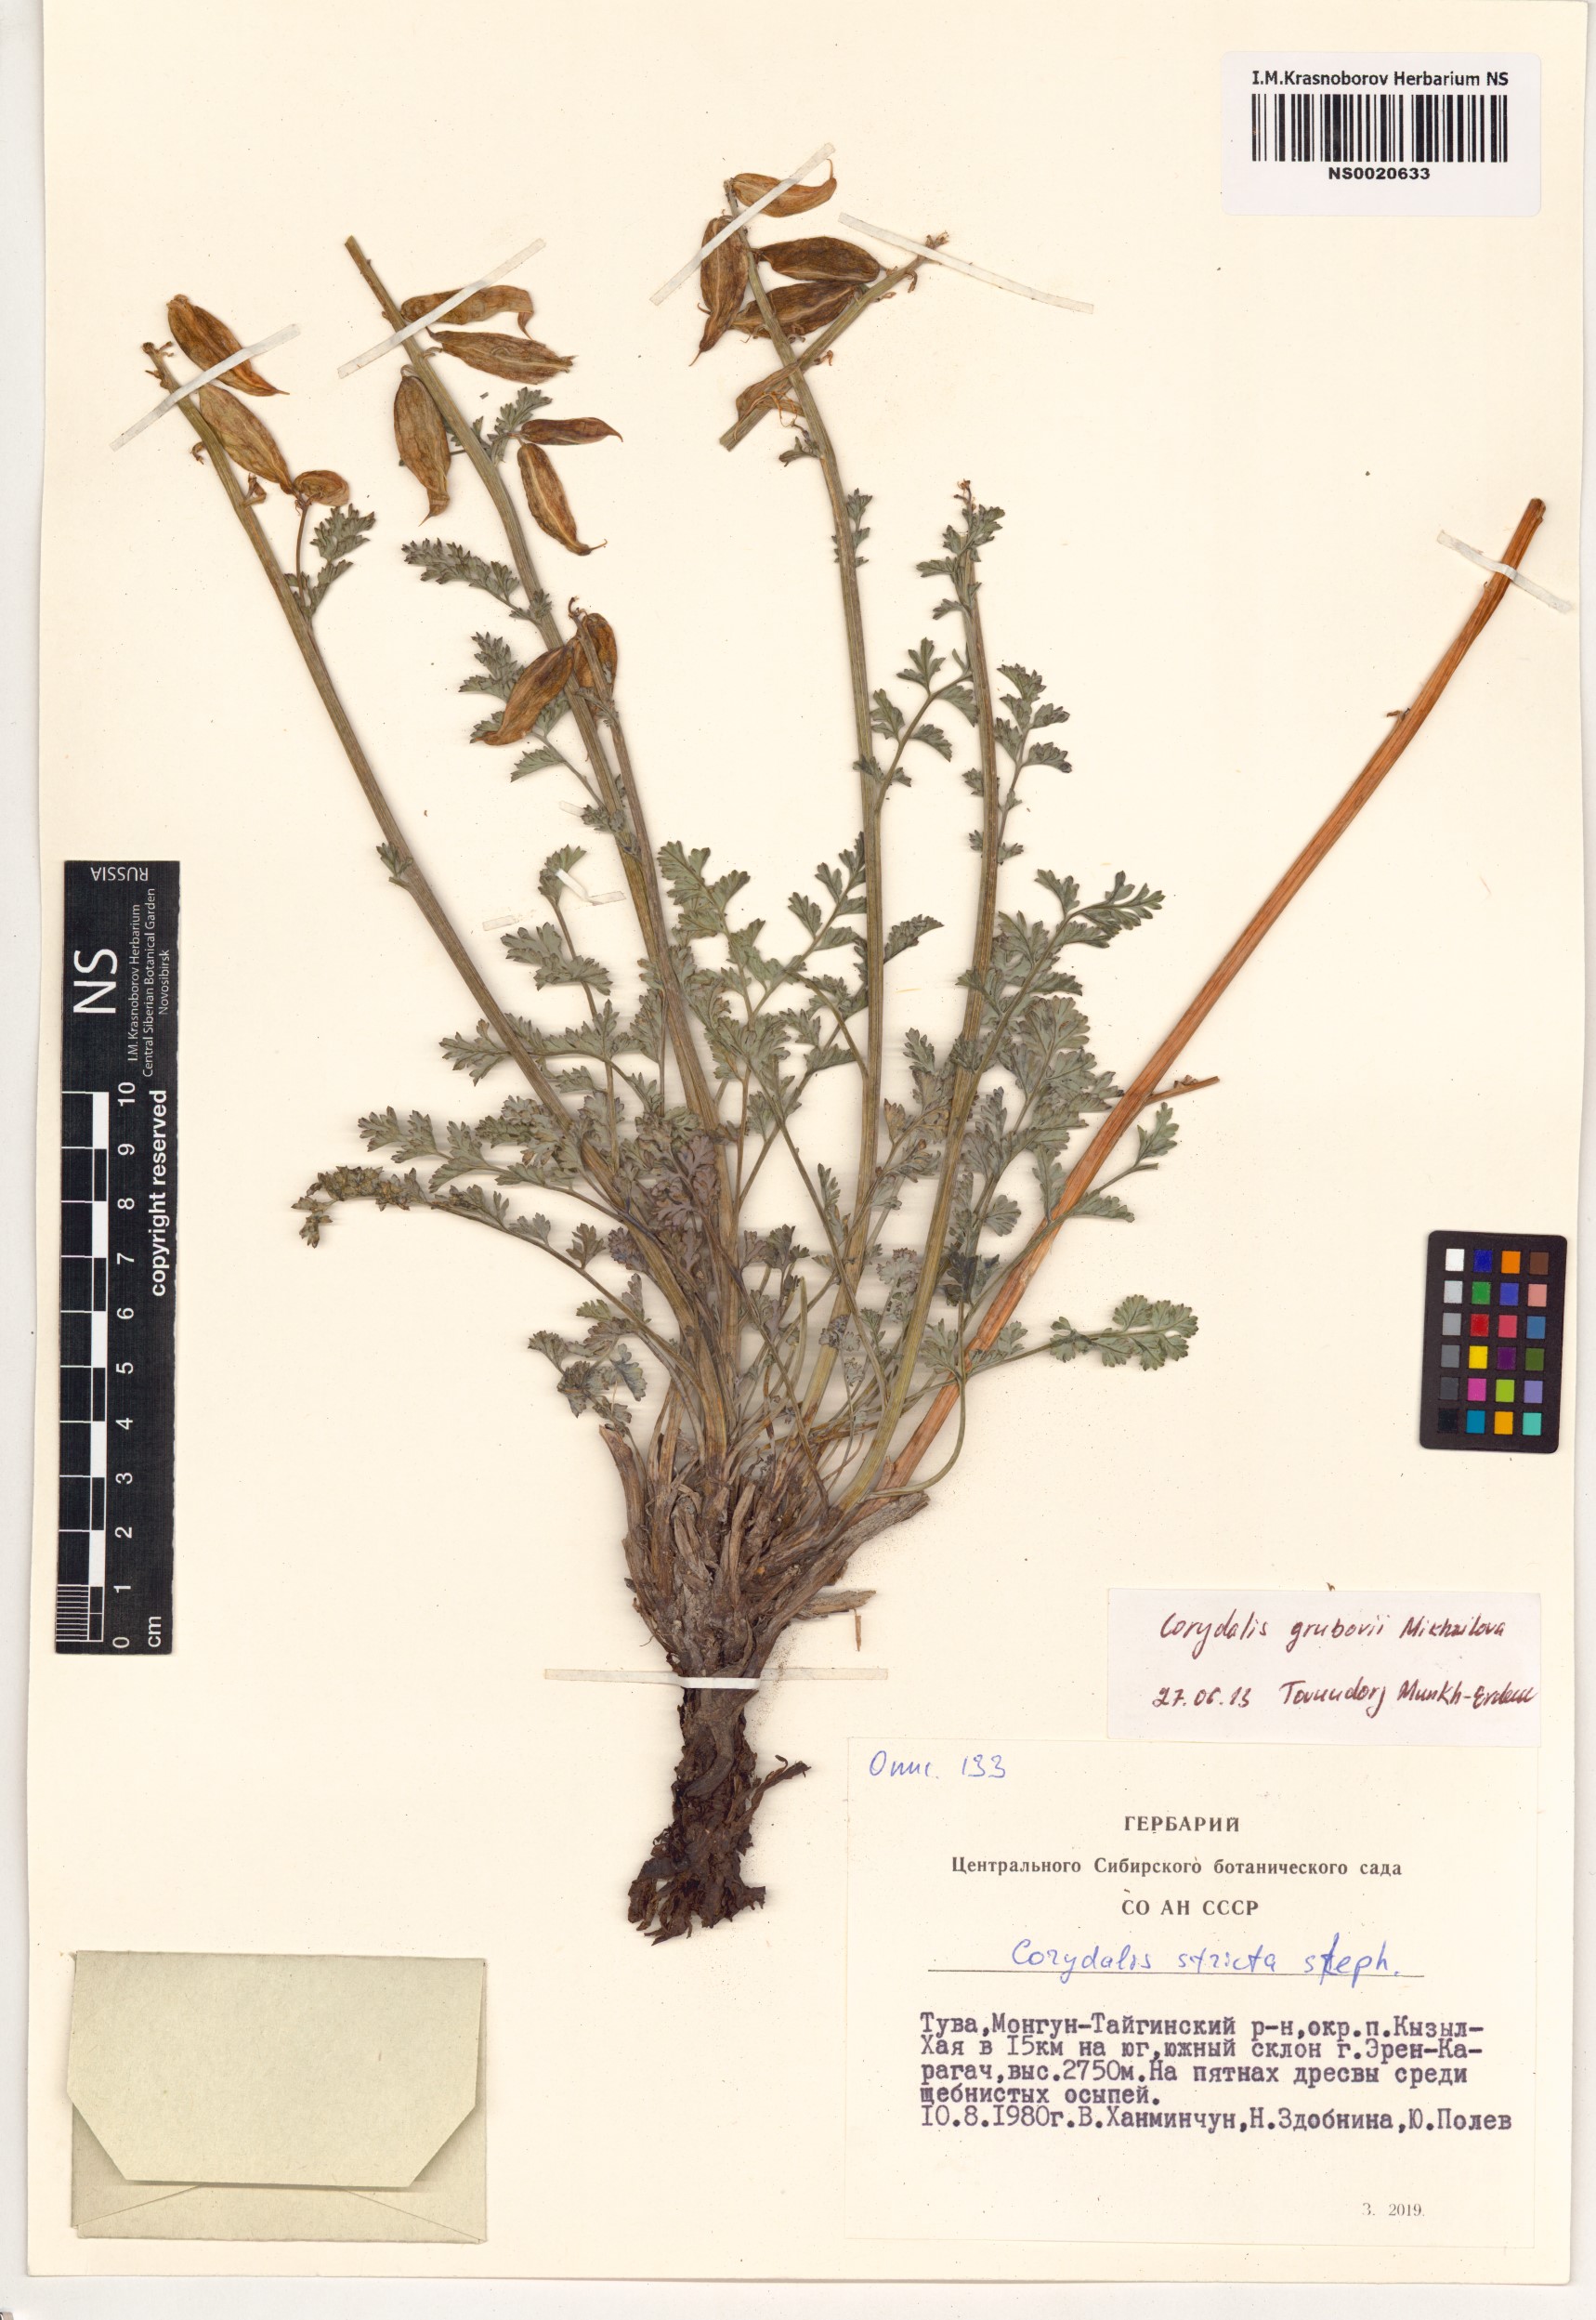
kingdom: Plantae
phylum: Tracheophyta
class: Magnoliopsida
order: Ranunculales
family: Papaveraceae
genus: Corydalis
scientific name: Corydalis stricta
